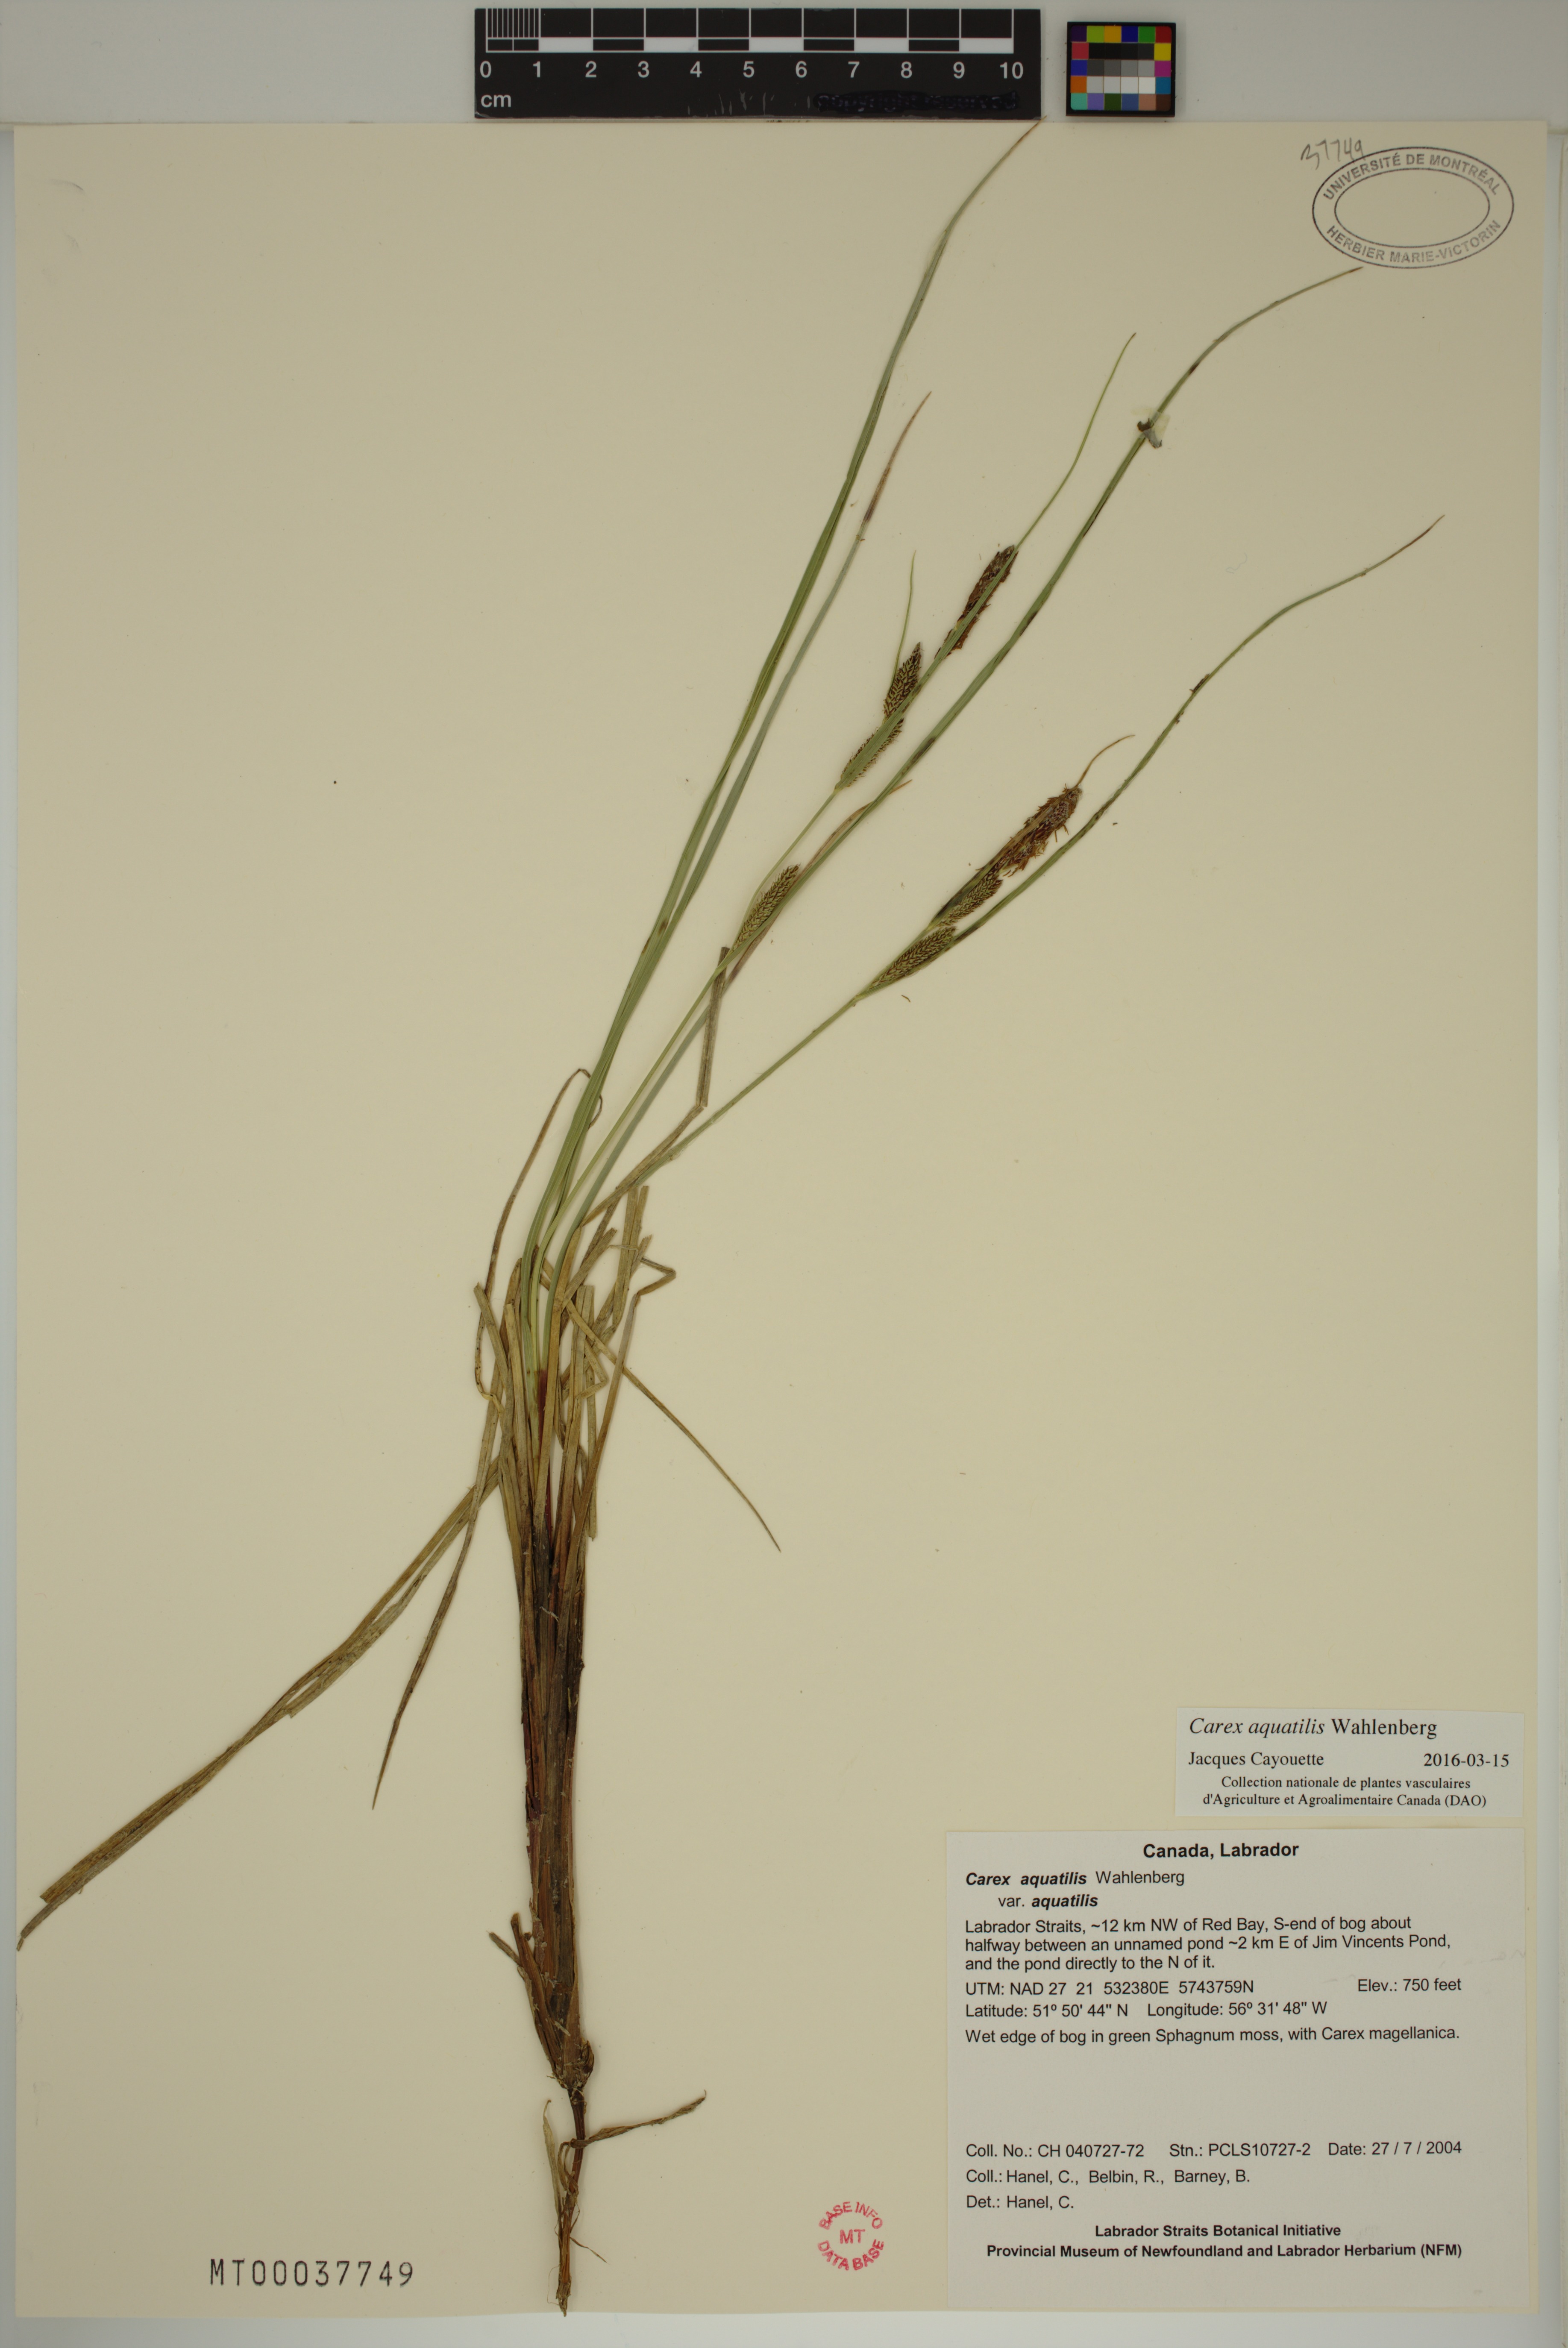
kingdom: Plantae
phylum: Tracheophyta
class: Liliopsida
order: Poales
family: Cyperaceae
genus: Carex
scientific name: Carex aquatilis
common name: Water sedge
